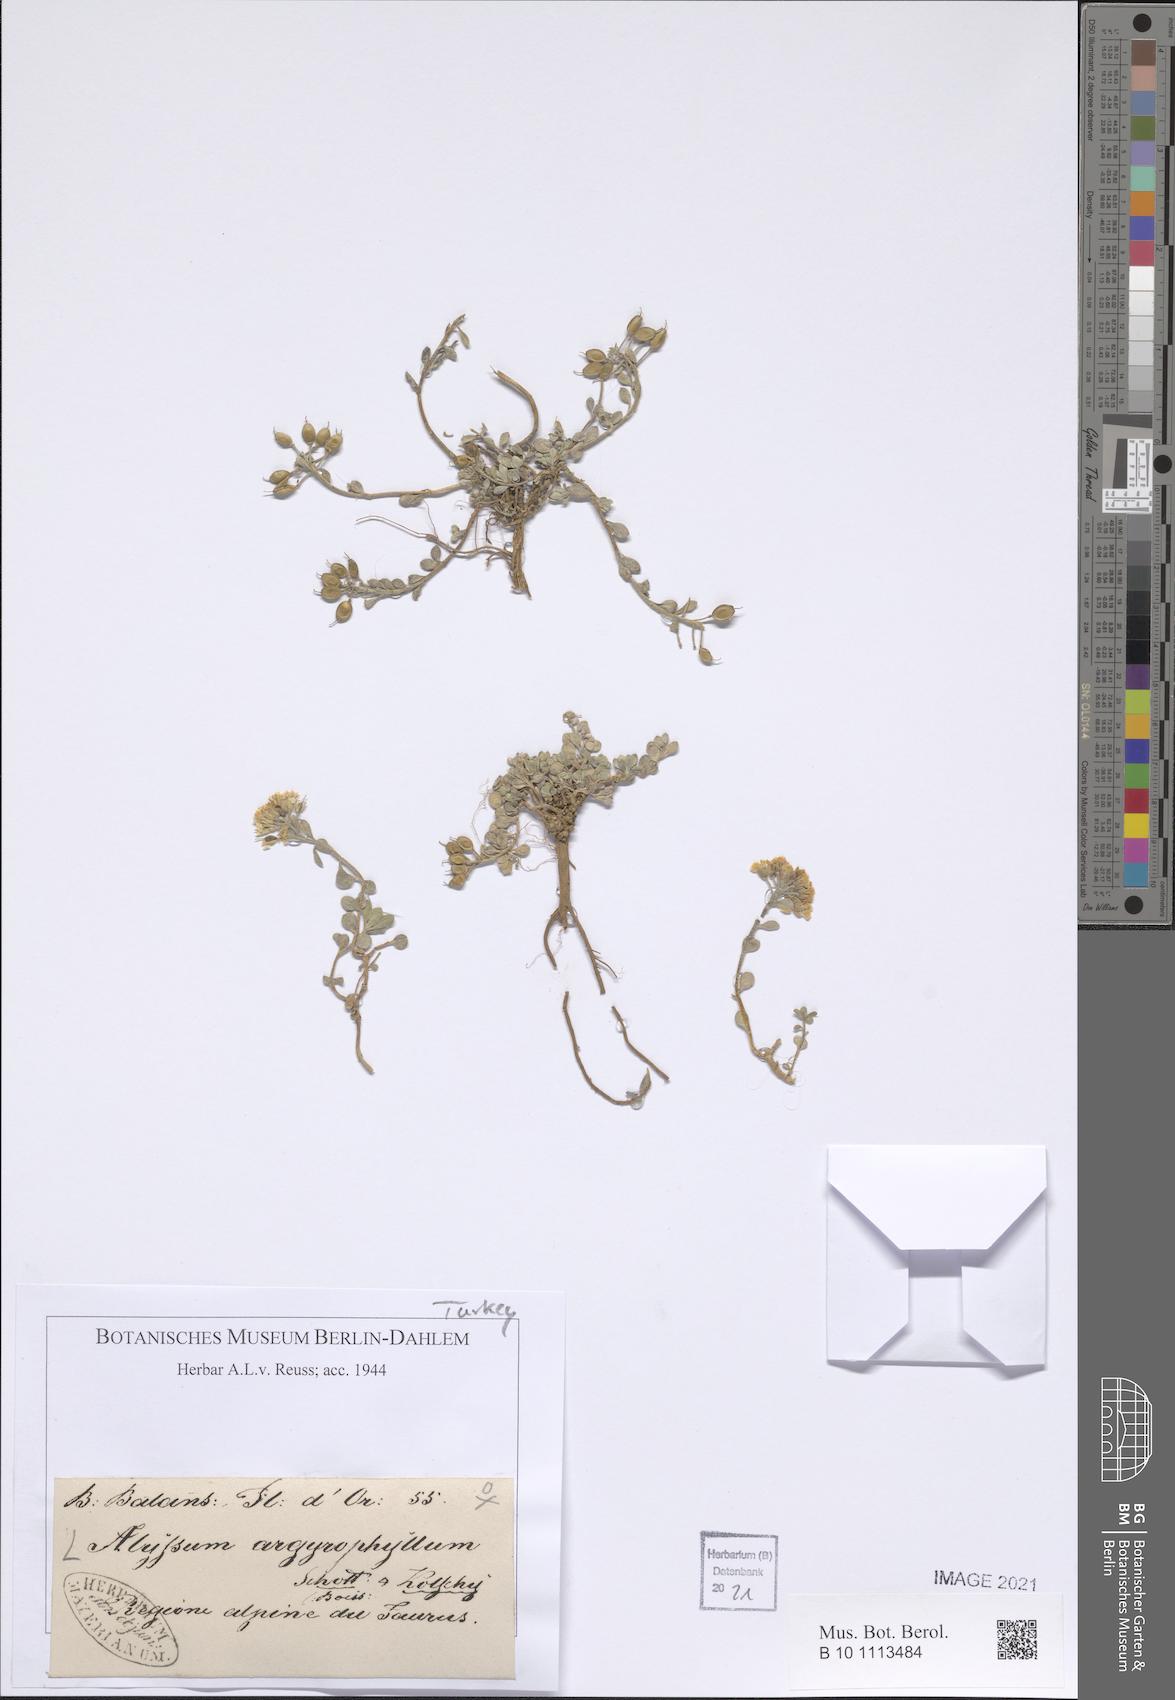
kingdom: Plantae
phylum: Tracheophyta
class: Magnoliopsida
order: Brassicales
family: Brassicaceae
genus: Alyssum
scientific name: Alyssum argyrophyllum
